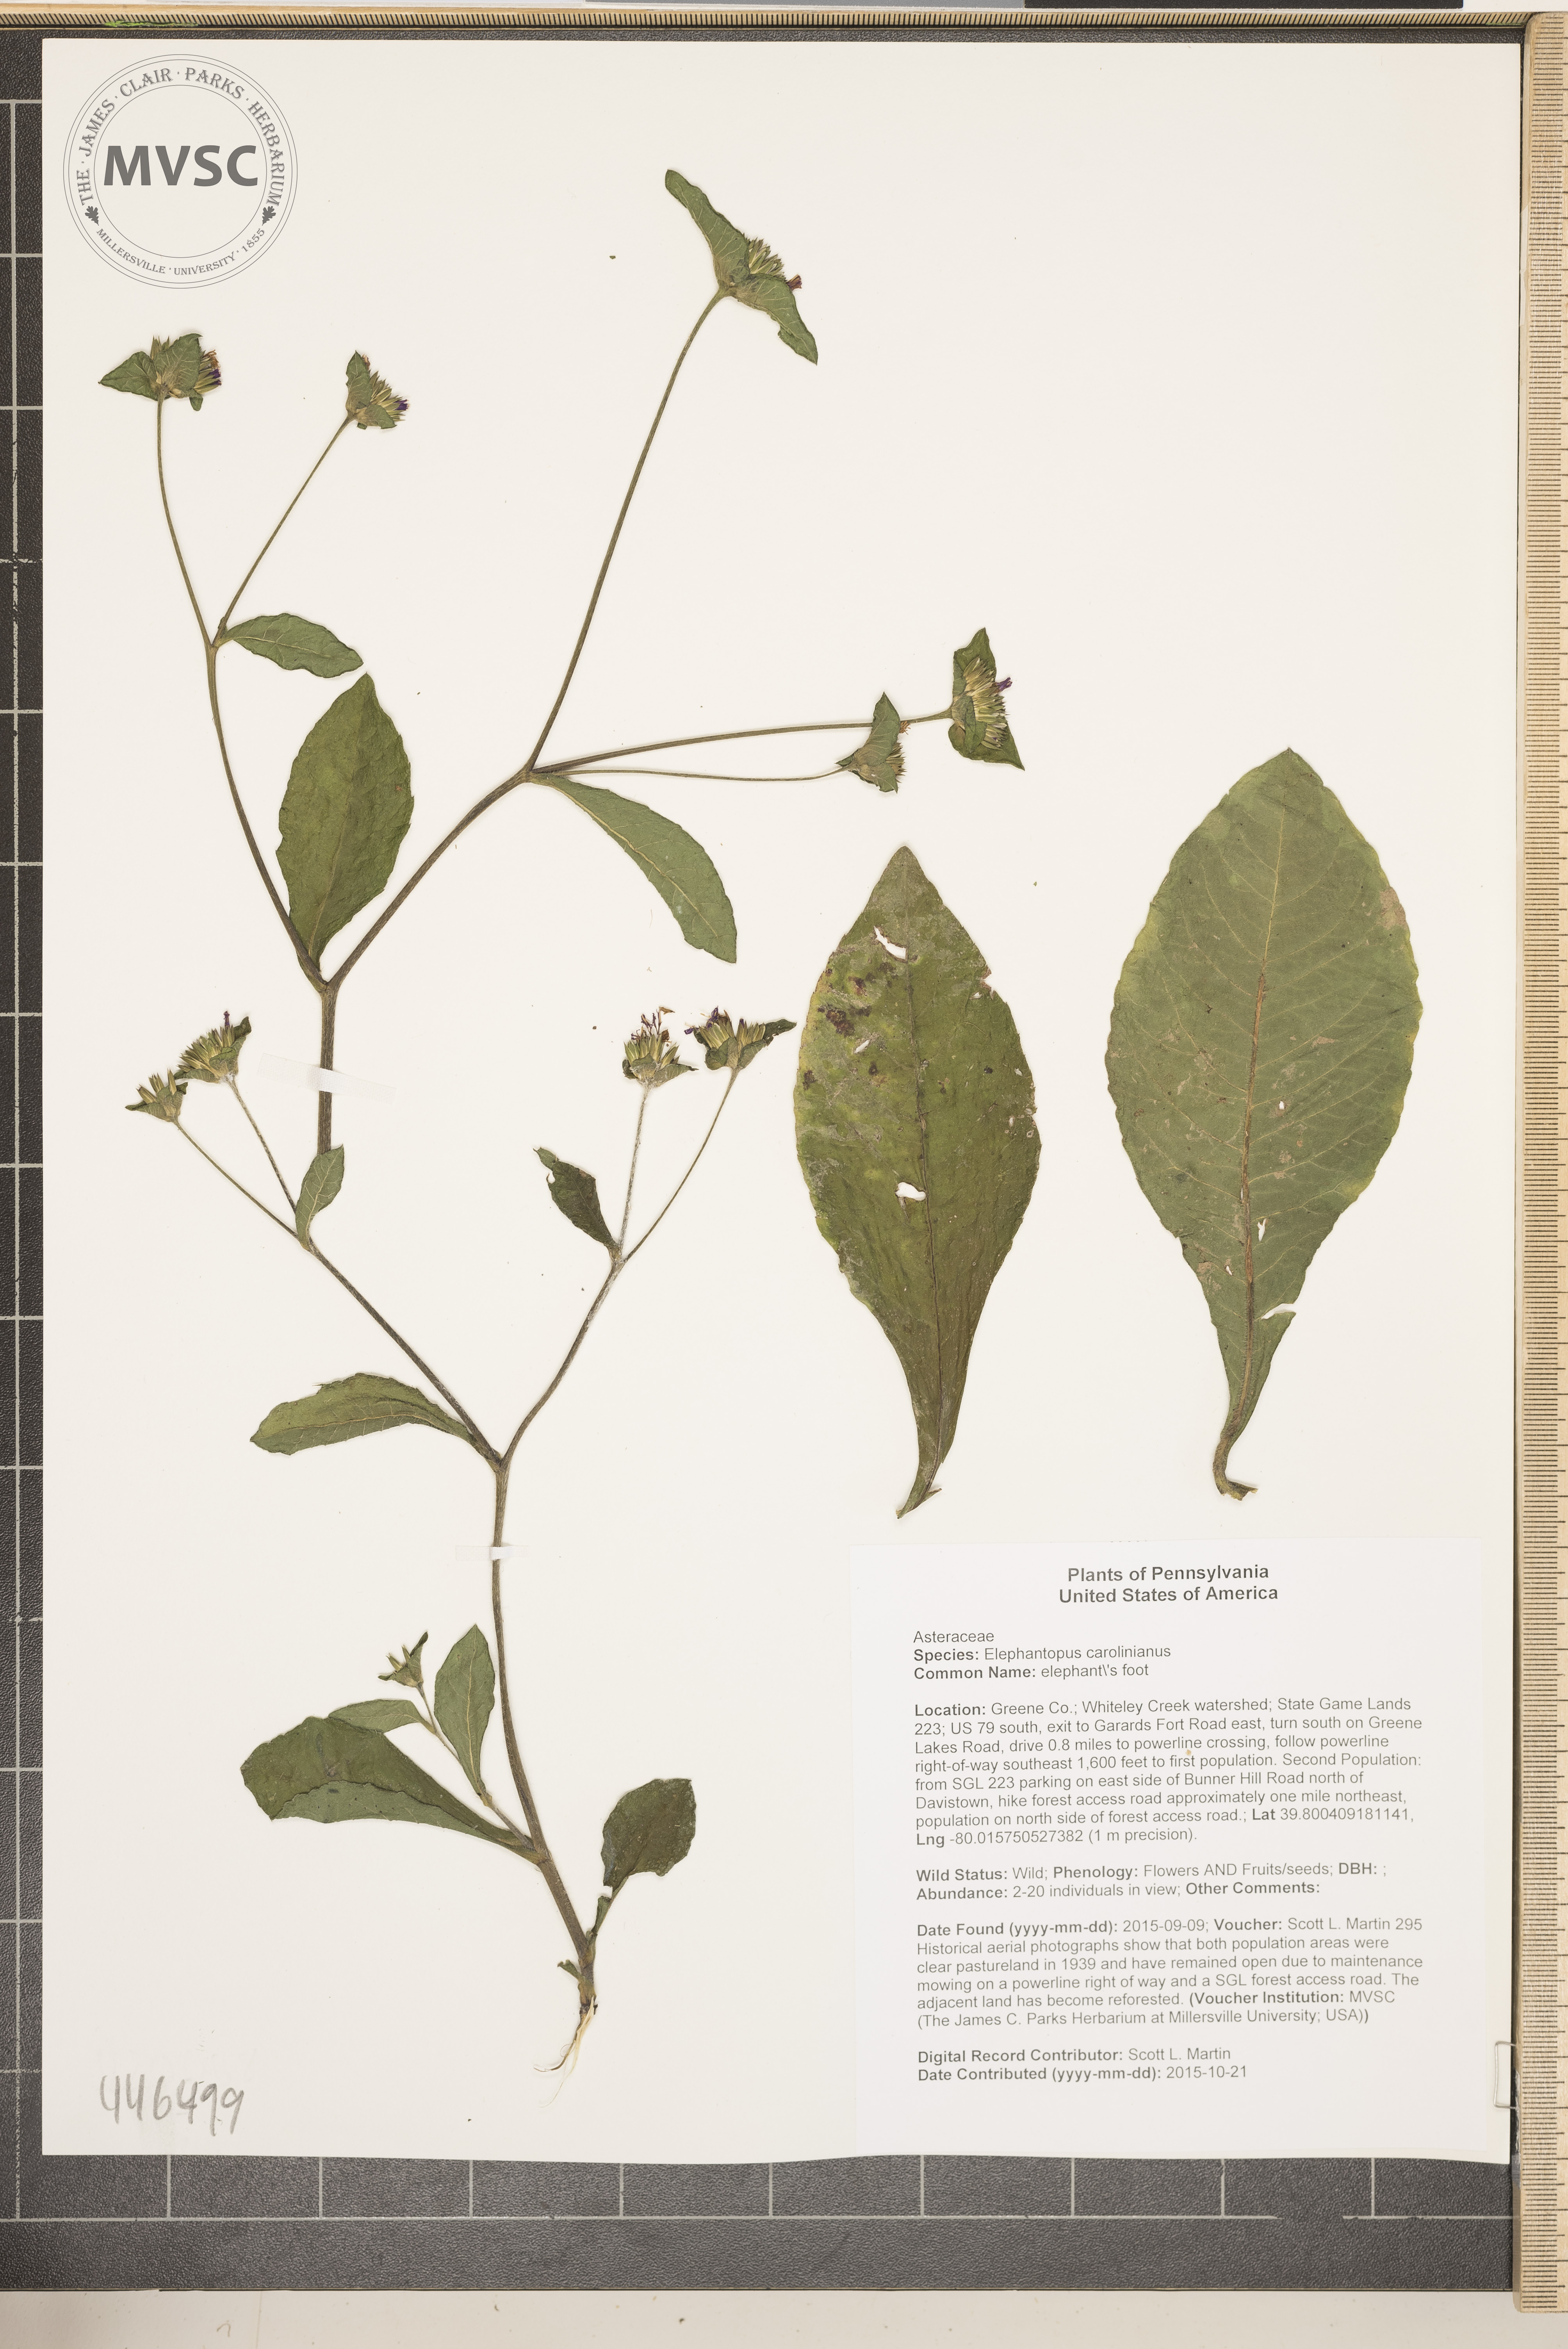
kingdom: Plantae
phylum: Tracheophyta
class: Magnoliopsida
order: Asterales
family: Asteraceae
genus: Elephantopus
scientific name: Elephantopus carolinianus
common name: elephant's foot
